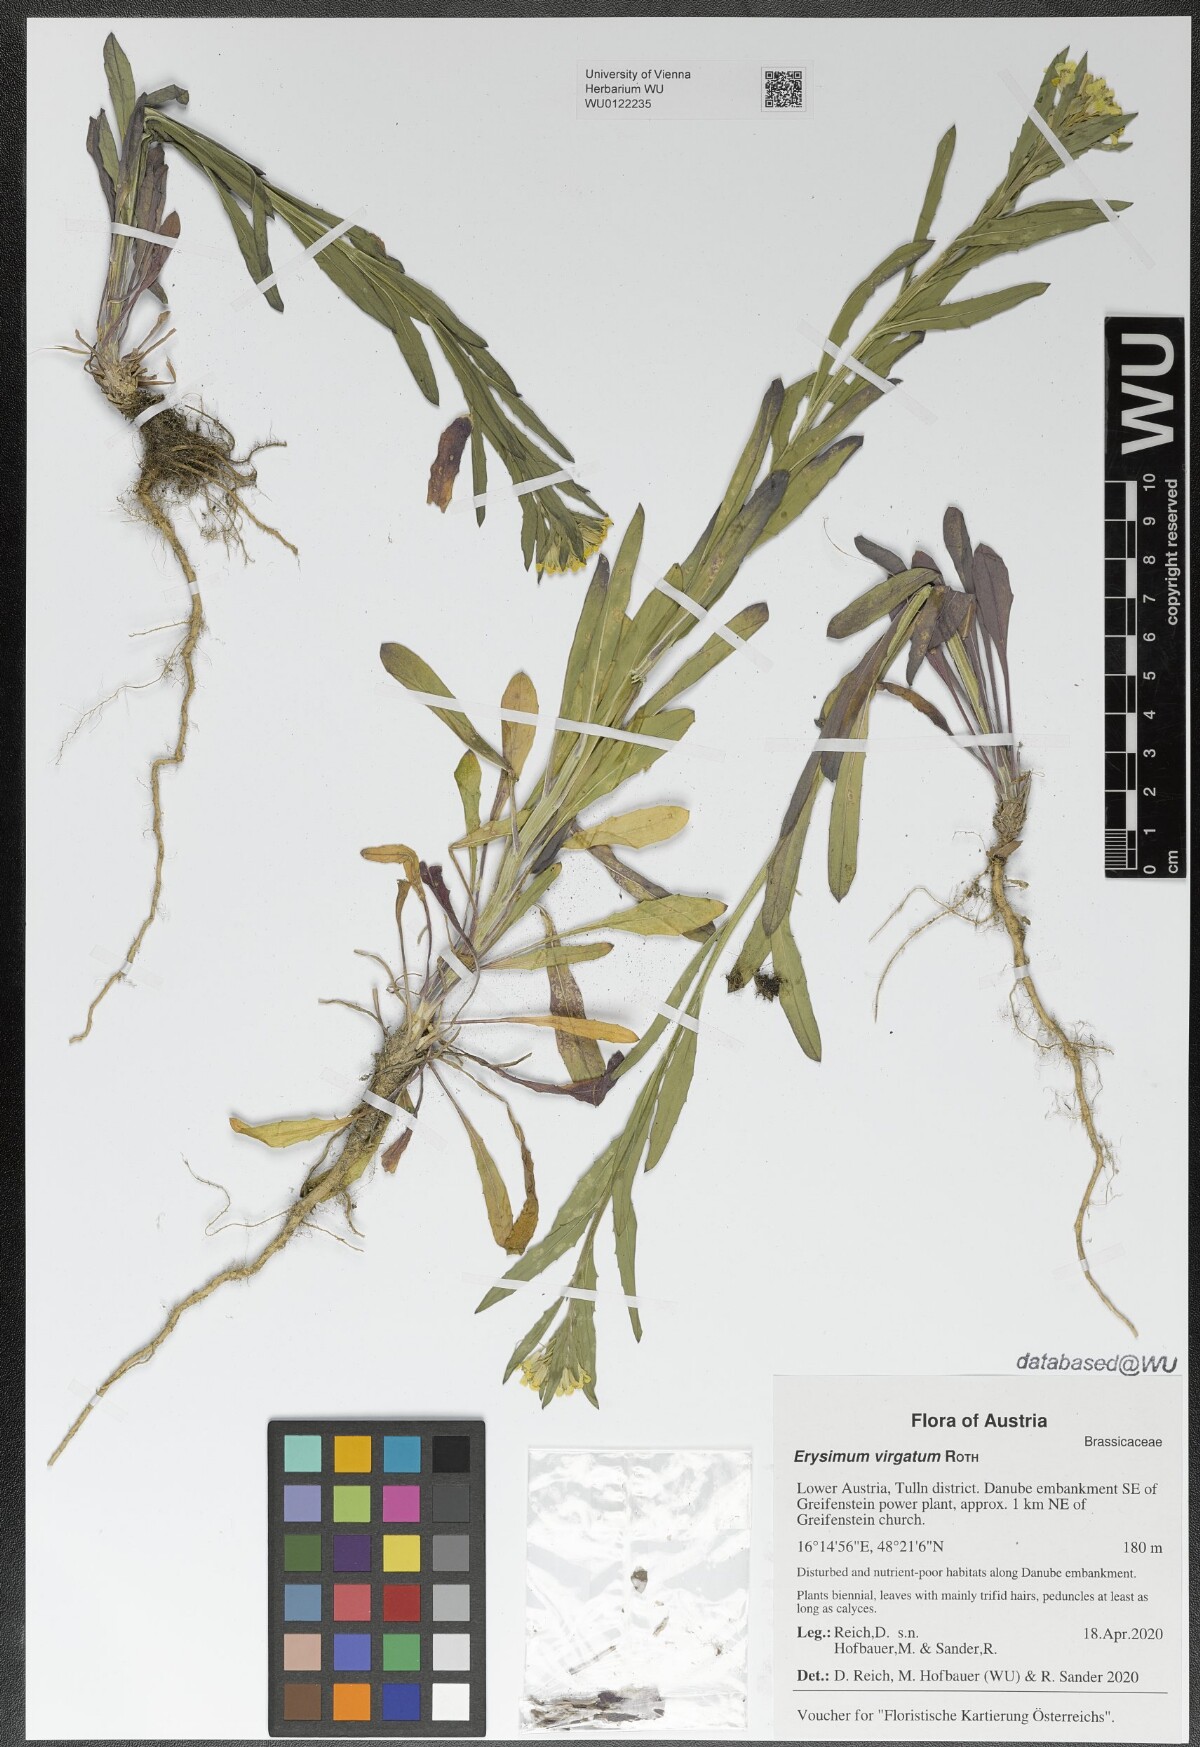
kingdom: Plantae
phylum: Tracheophyta
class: Magnoliopsida
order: Brassicales
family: Brassicaceae
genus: Erysimum
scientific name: Erysimum virgatum
